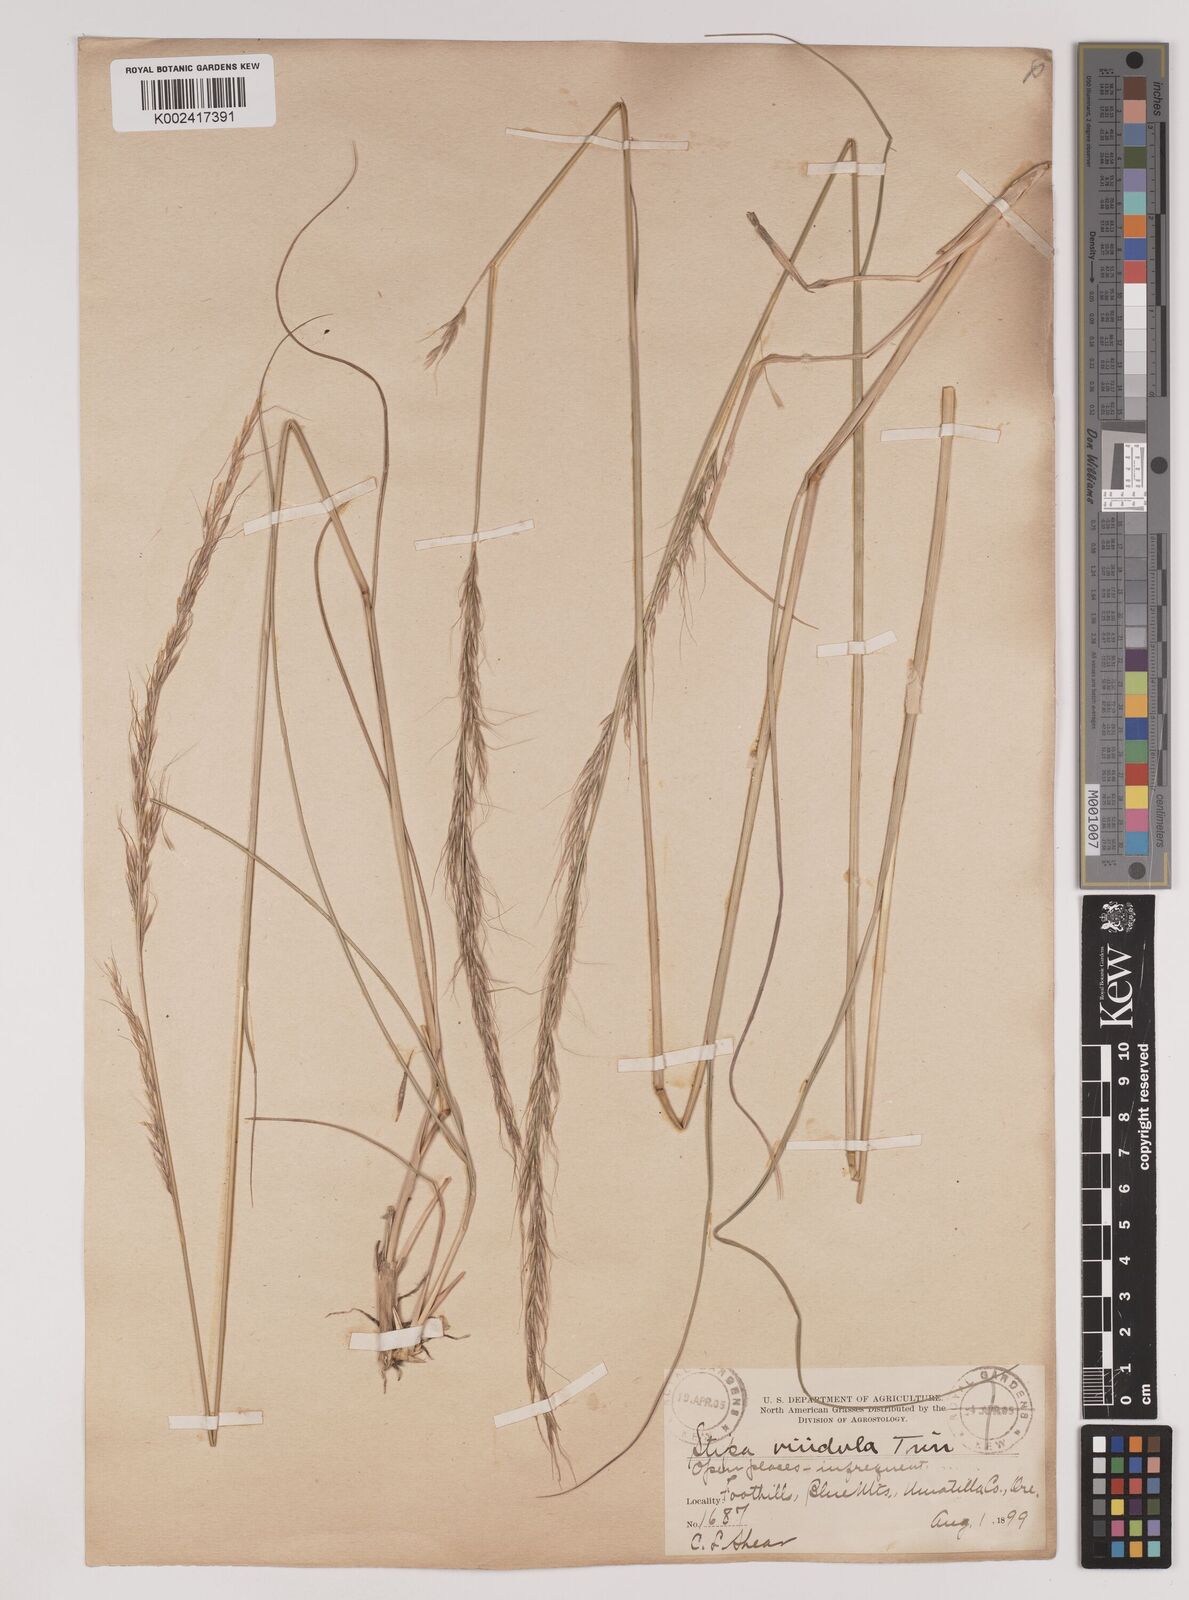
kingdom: Plantae
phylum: Tracheophyta
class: Liliopsida
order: Poales
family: Poaceae
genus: Nassella
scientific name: Nassella viridula
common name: Green needlegrass
